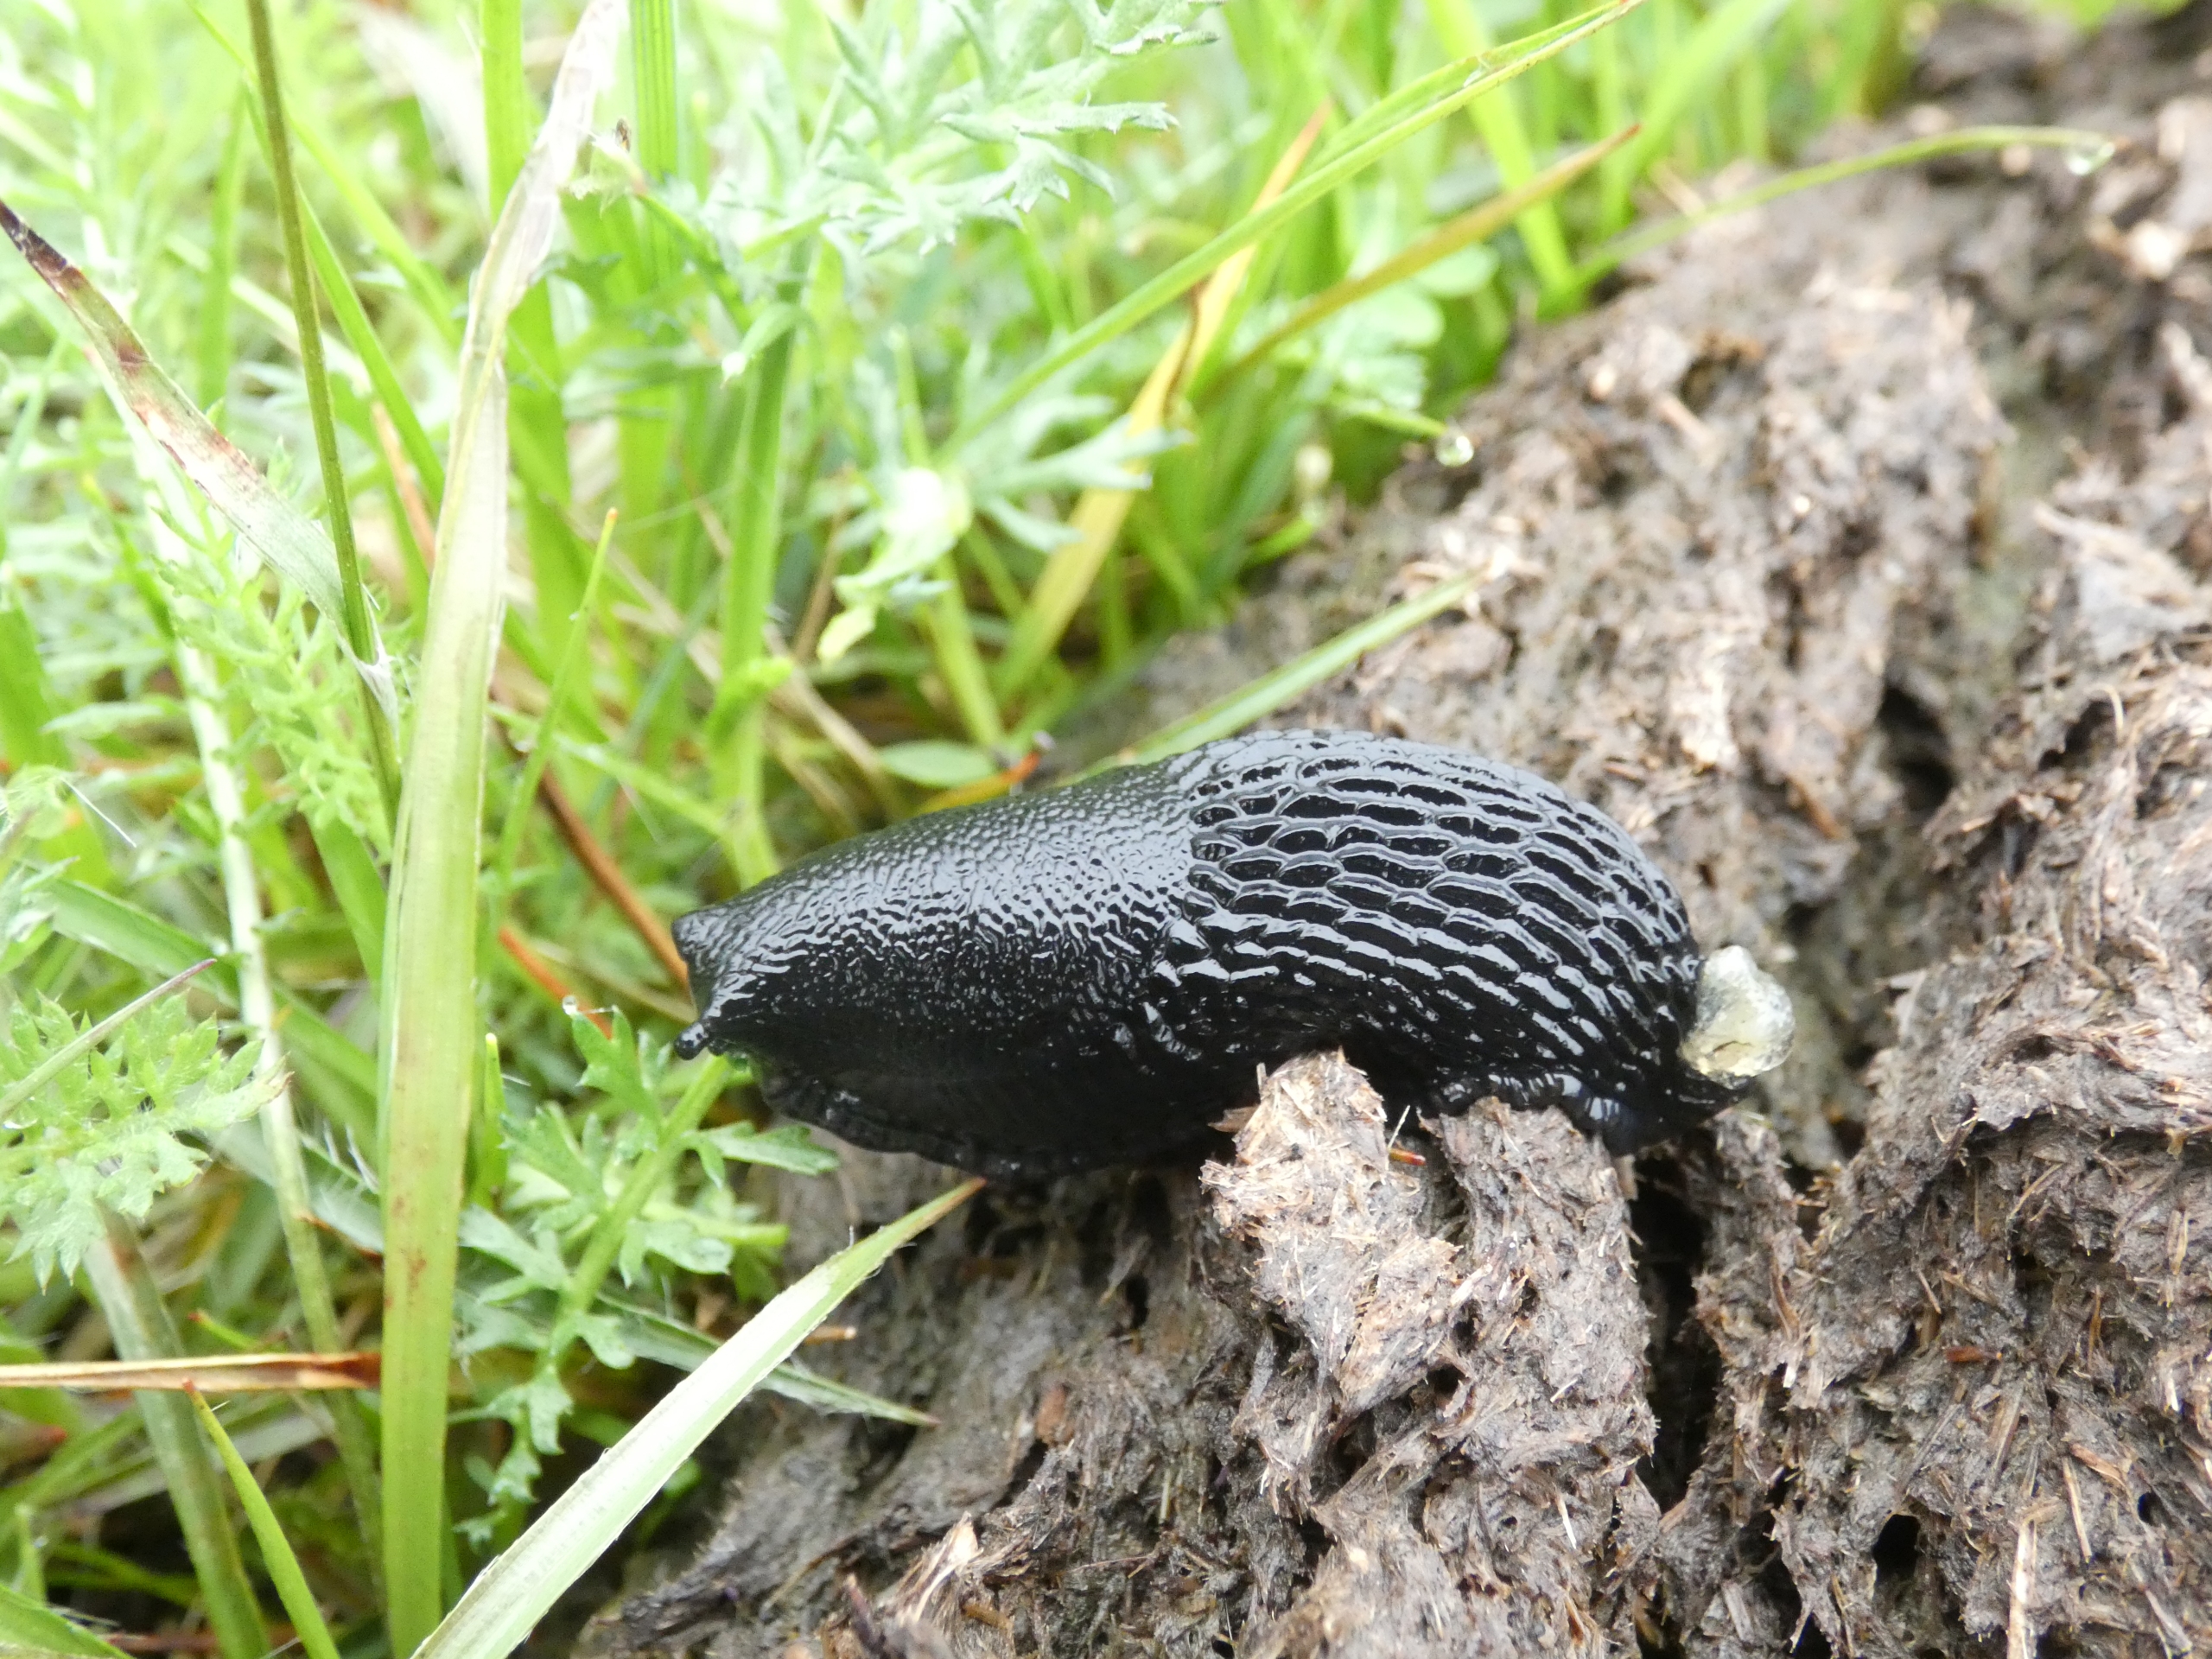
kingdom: Animalia
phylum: Mollusca
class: Gastropoda
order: Stylommatophora
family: Arionidae
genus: Arion
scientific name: Arion ater
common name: Sort skovsnegl
